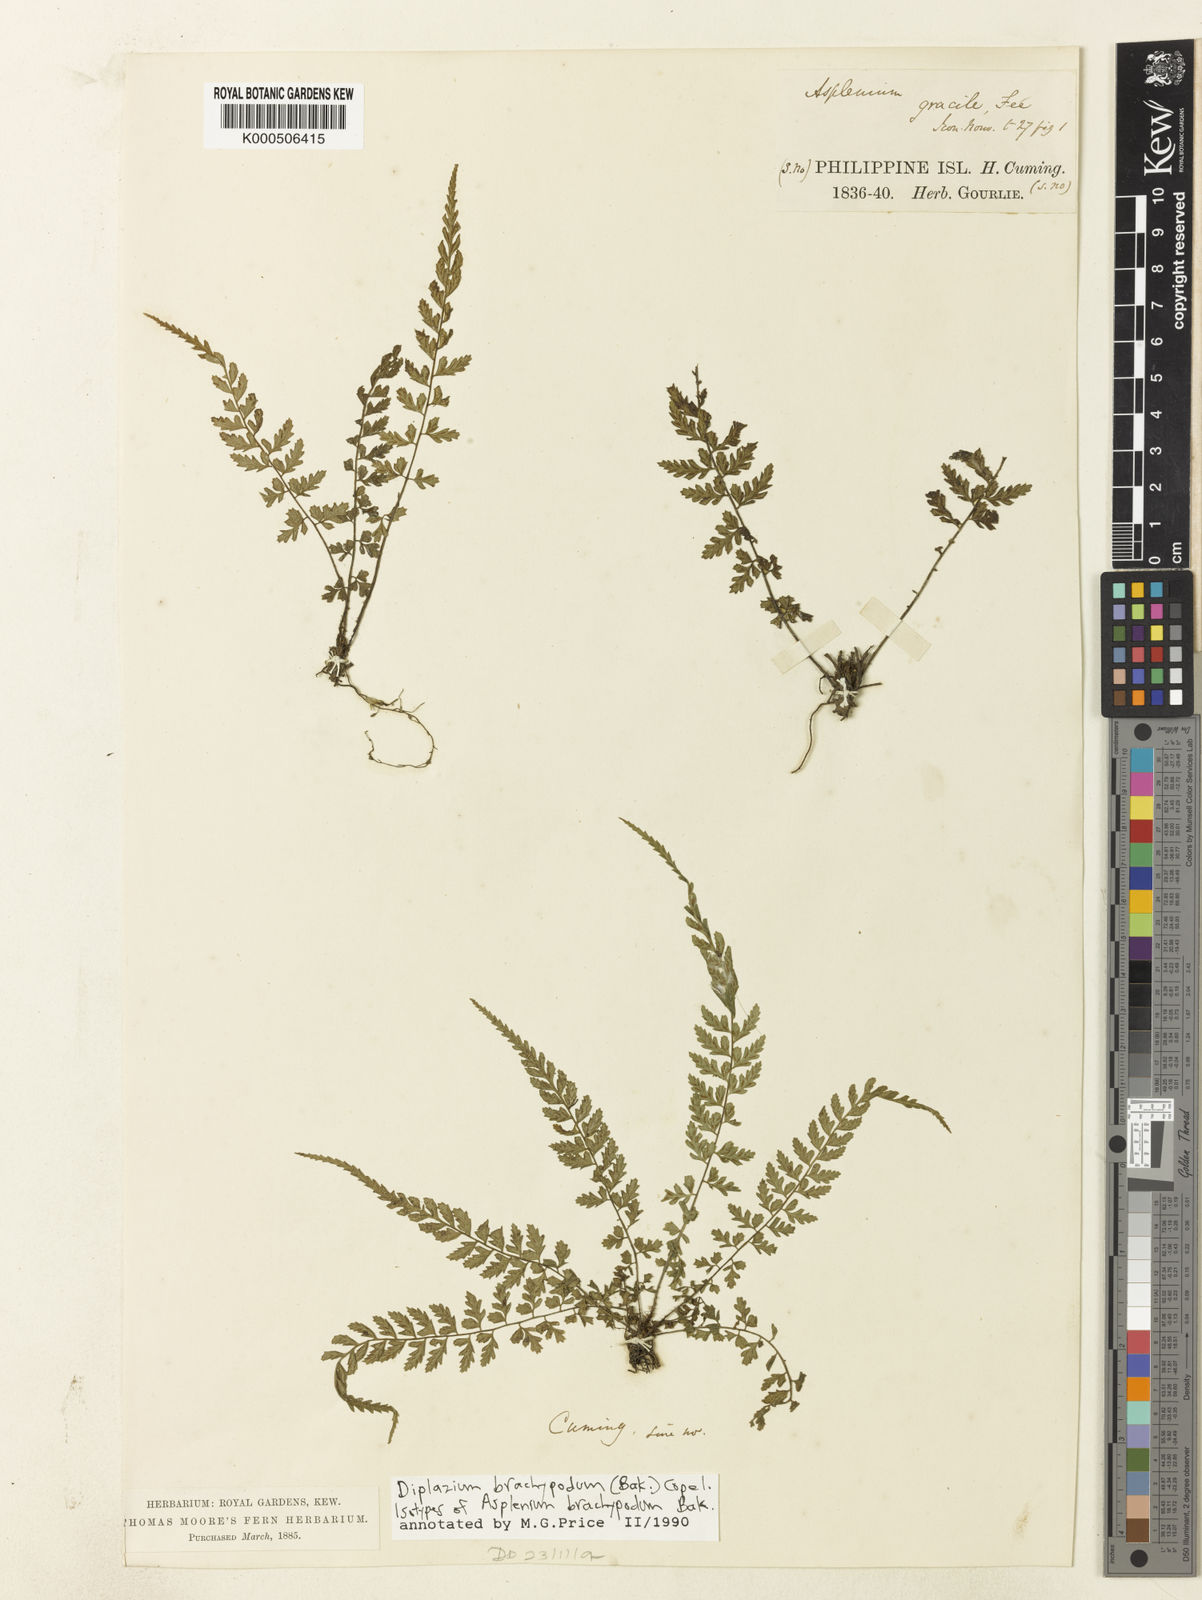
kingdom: Plantae
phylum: Tracheophyta
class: Polypodiopsida
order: Polypodiales
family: Athyriaceae
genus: Deparia
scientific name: Deparia confluens
